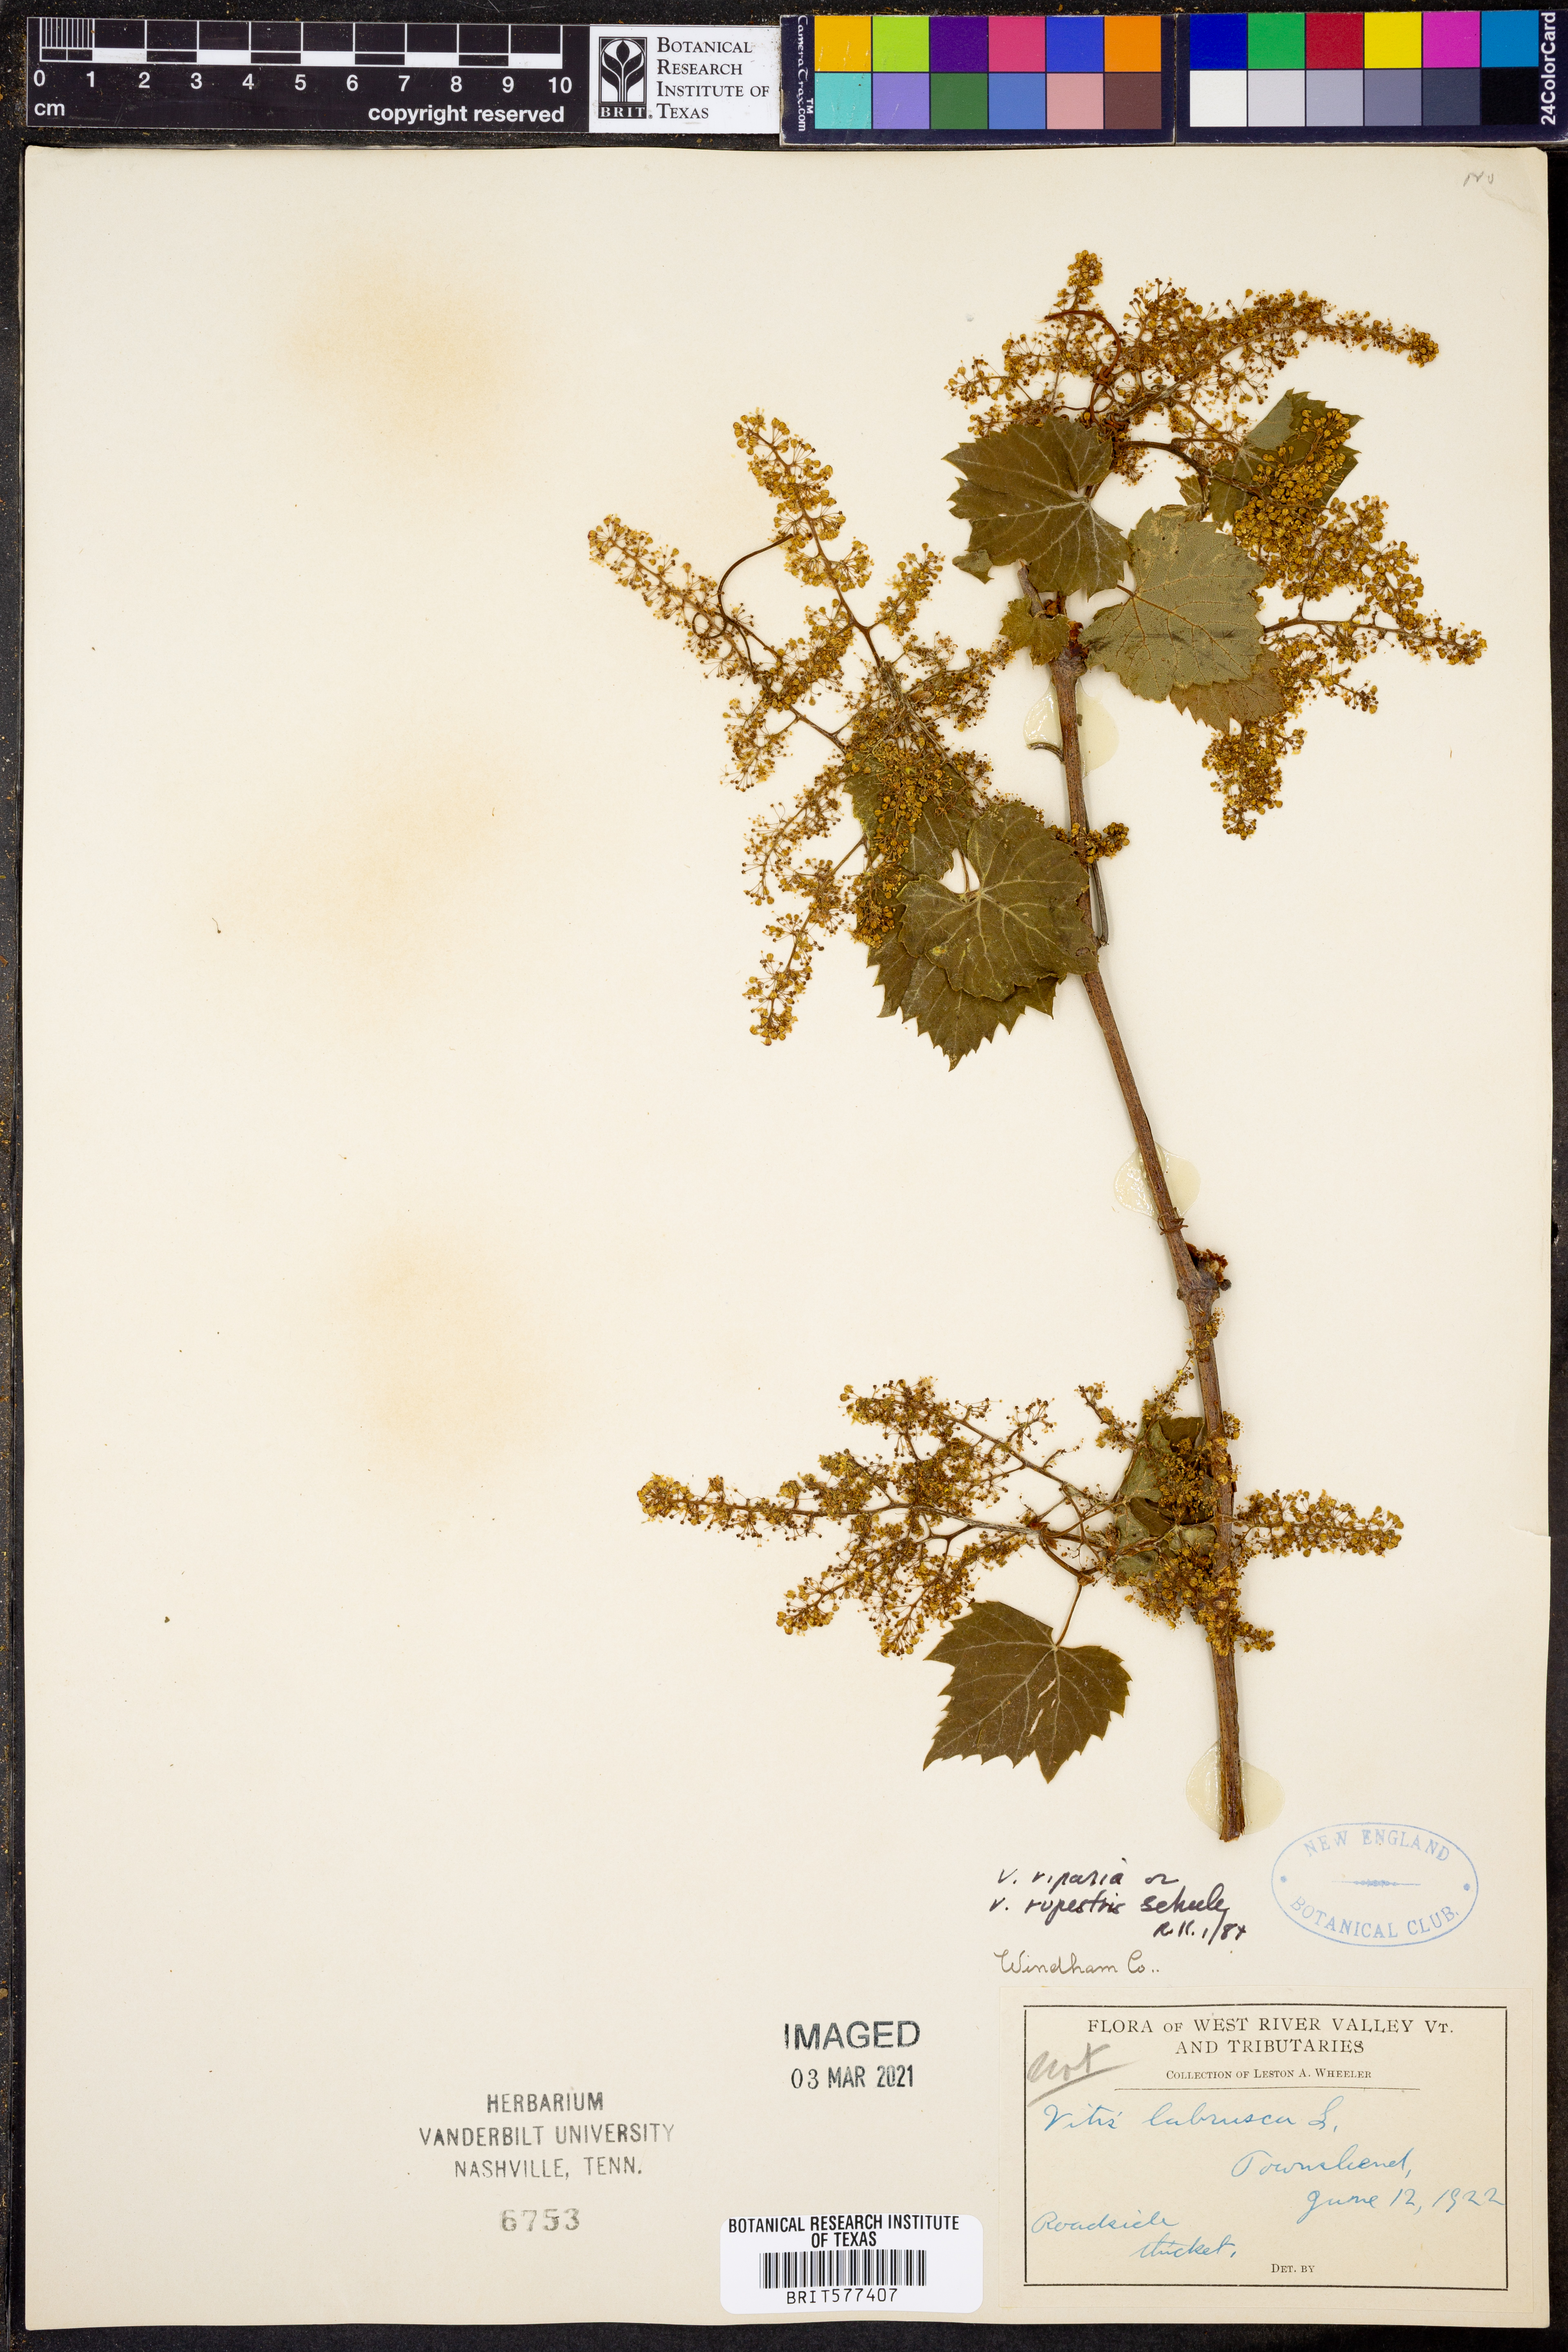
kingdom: Plantae
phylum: Tracheophyta
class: Magnoliopsida
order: Vitales
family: Vitaceae
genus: Vitis
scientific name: Vitis labrusca
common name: Concord grape
